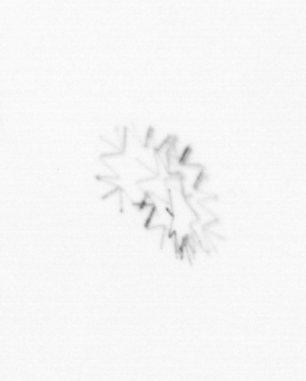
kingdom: Chromista
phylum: Ochrophyta
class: Bacillariophyceae
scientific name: Bacillariophyceae
